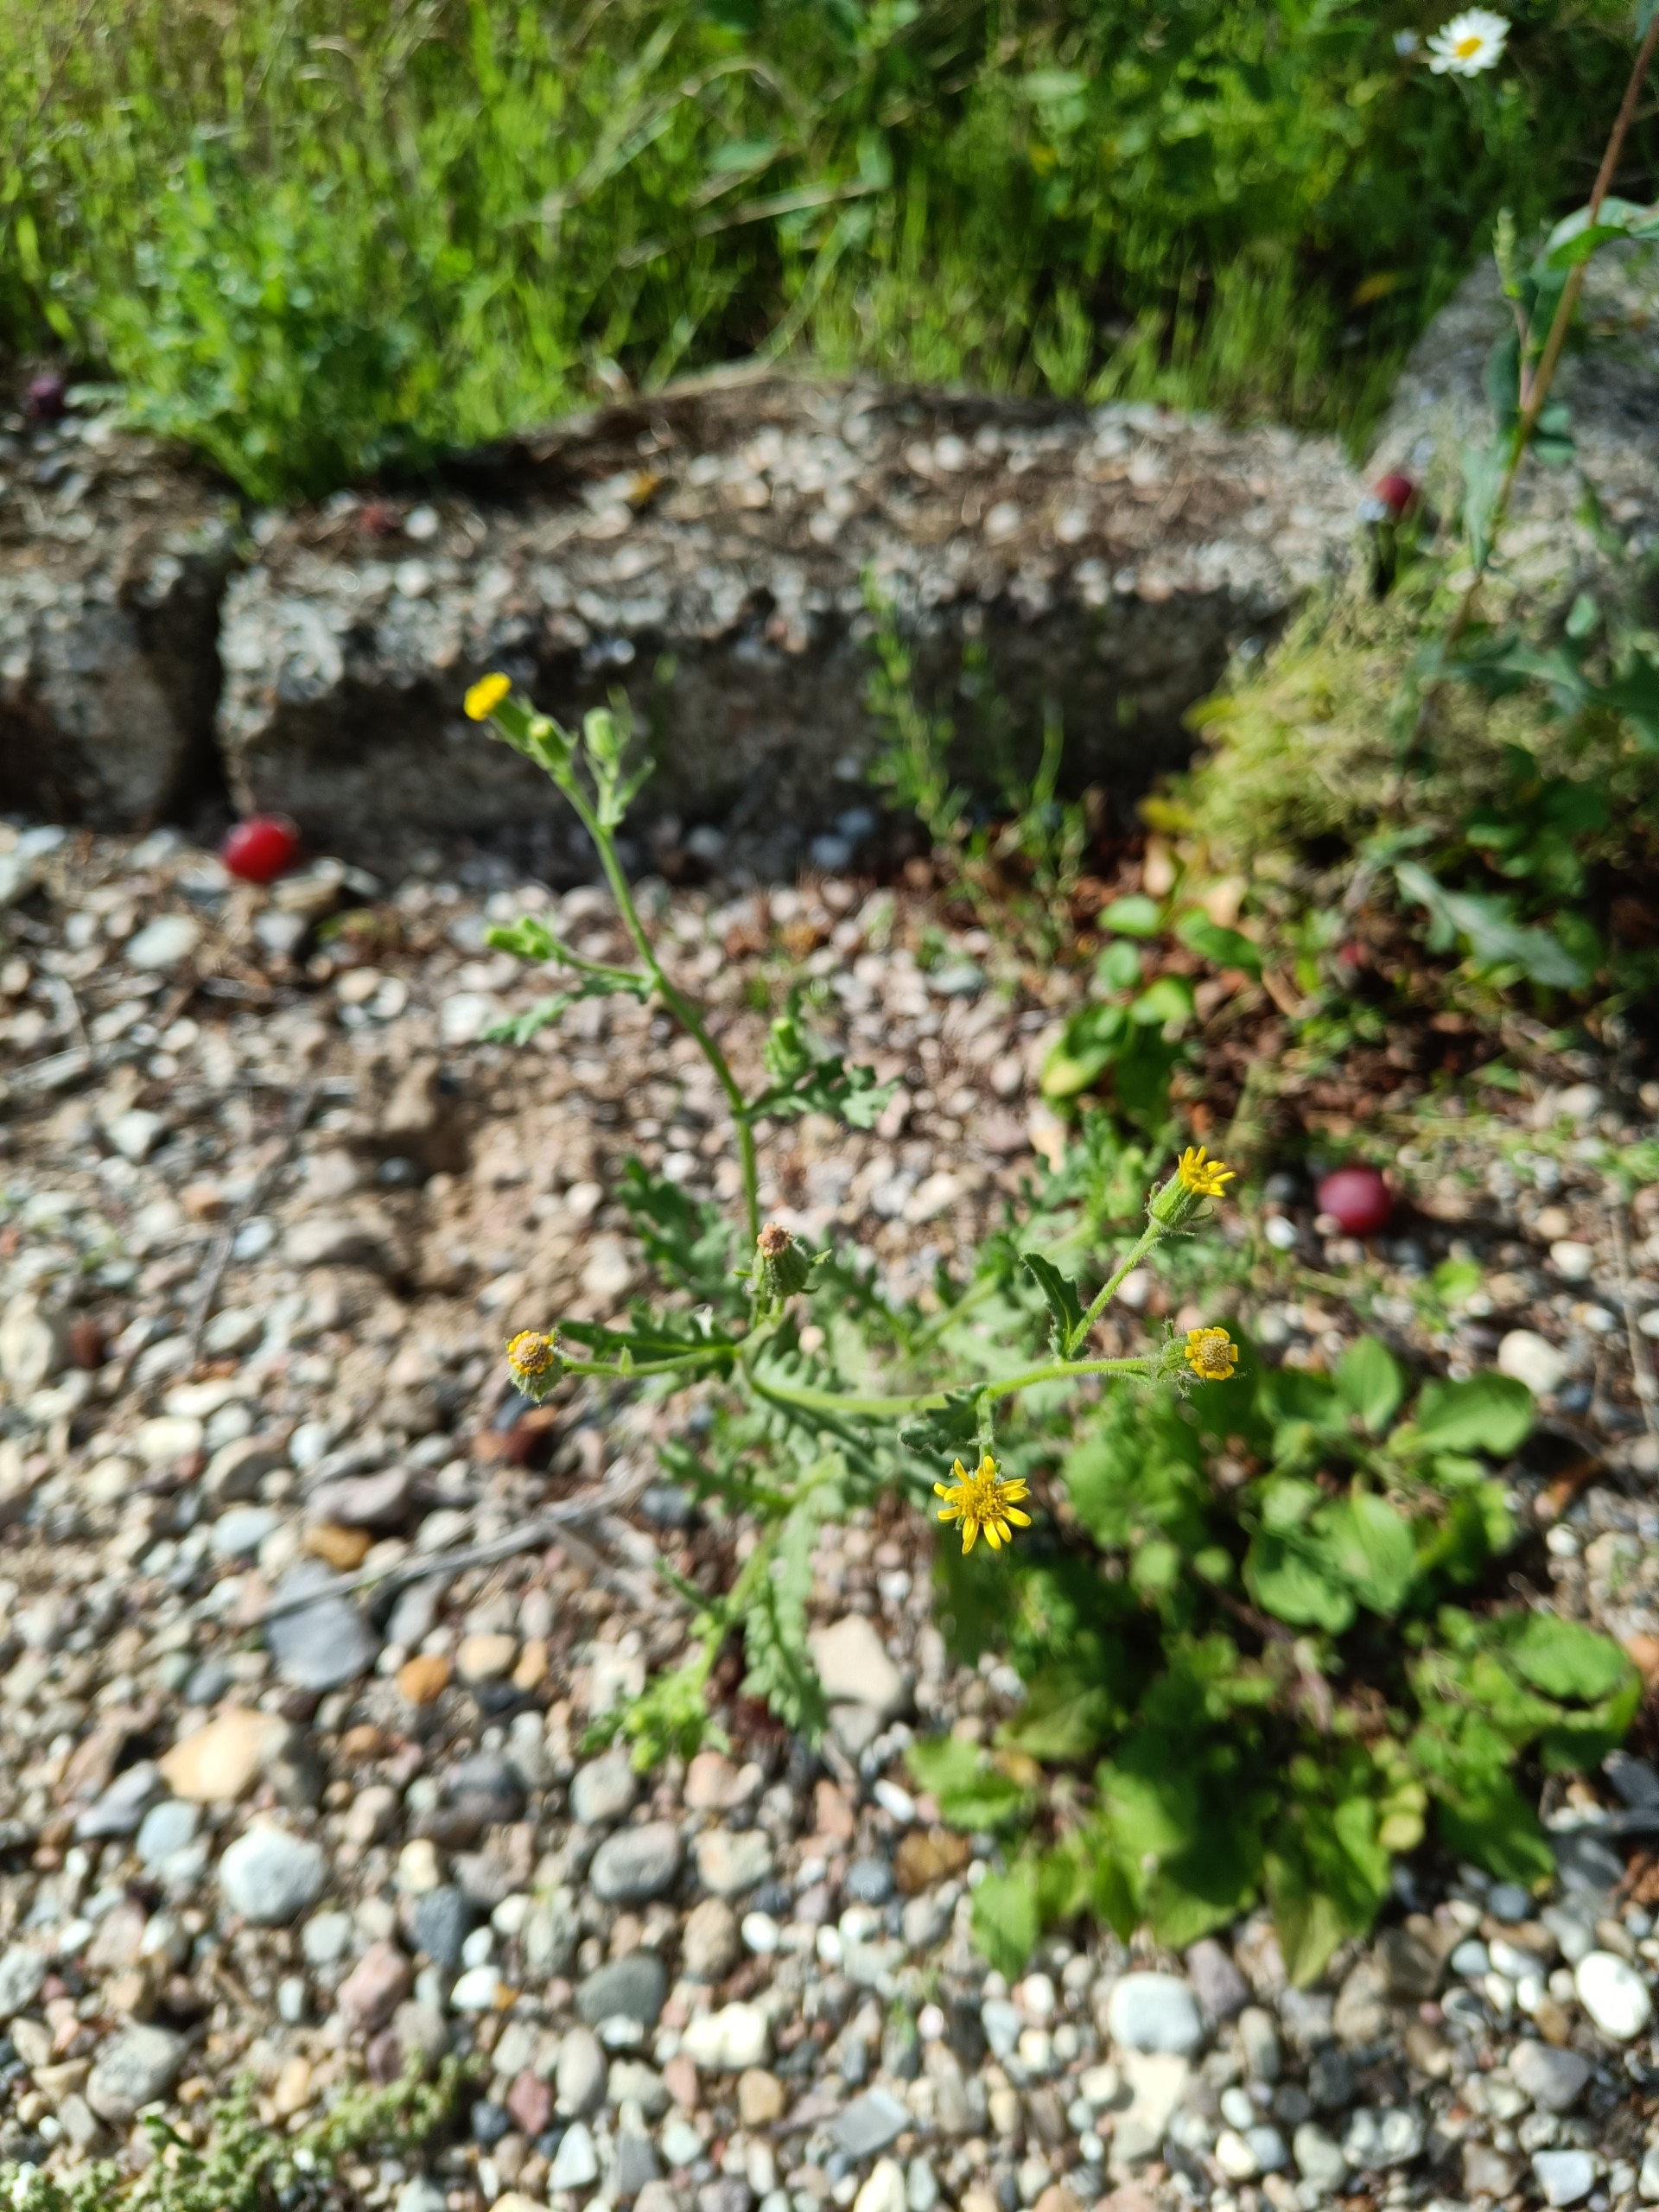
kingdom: Plantae
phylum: Tracheophyta
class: Magnoliopsida
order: Asterales
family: Asteraceae
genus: Senecio
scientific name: Senecio viscosus
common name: Klæbrig brandbæger
